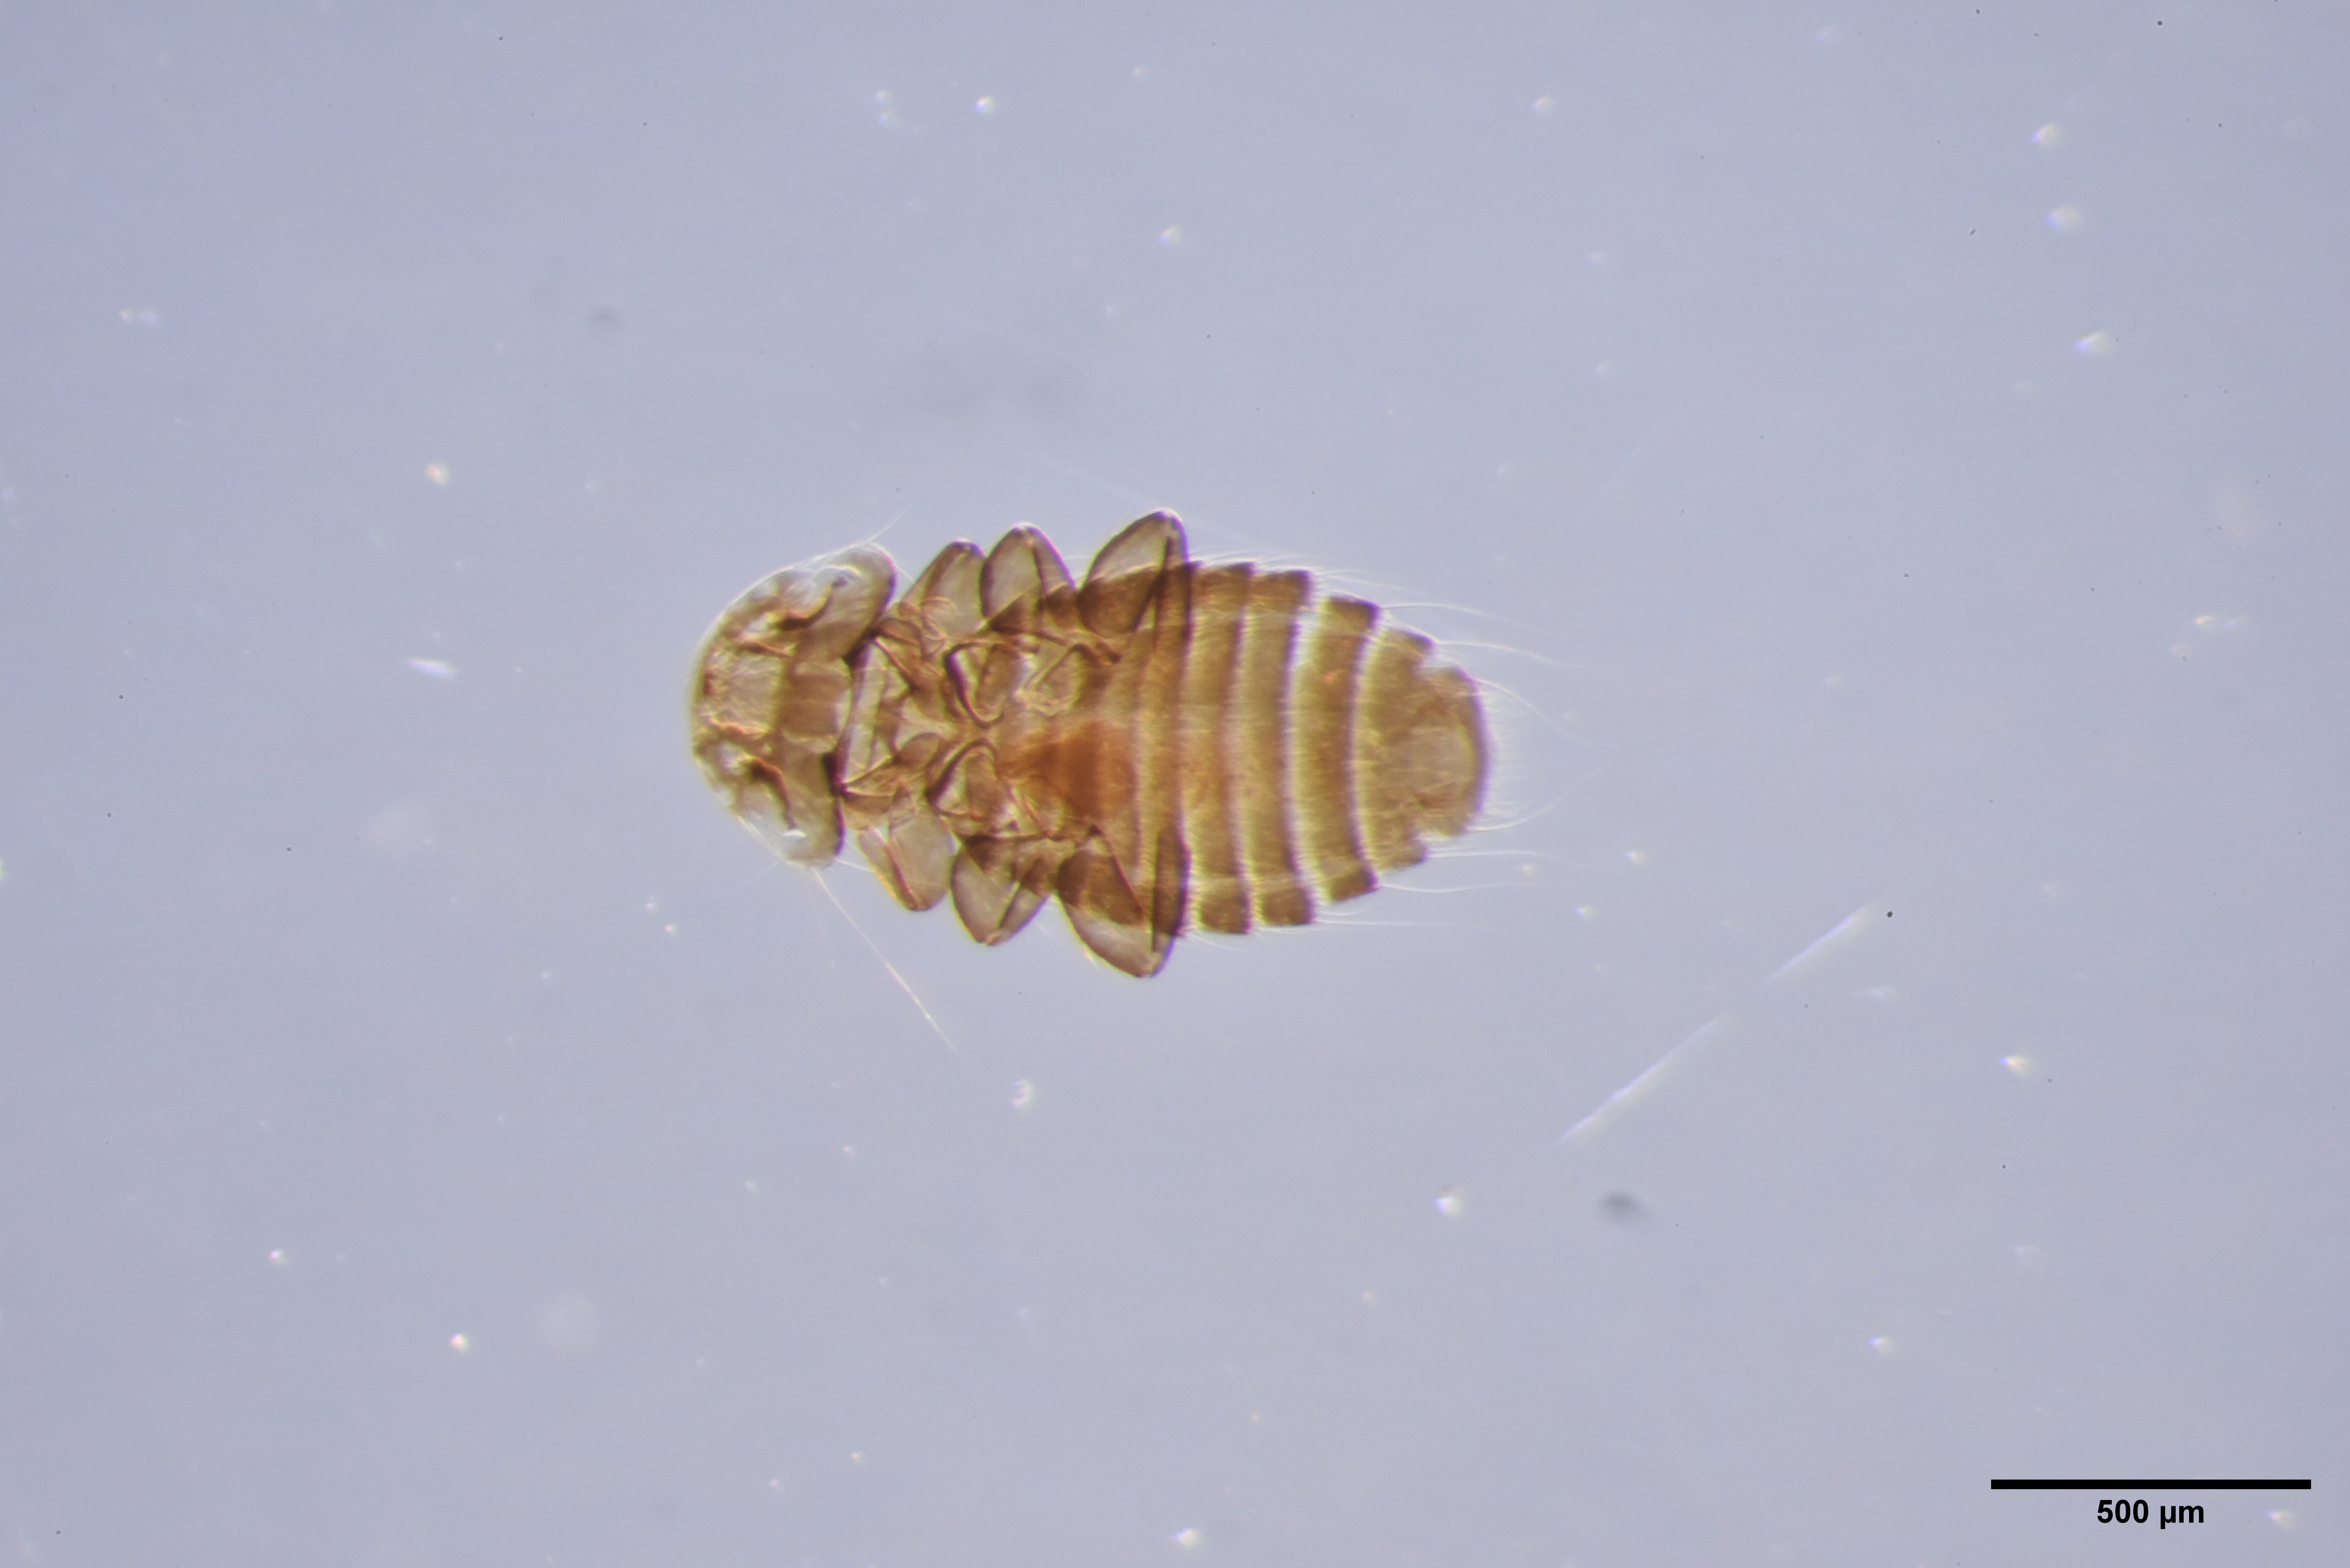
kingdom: Animalia
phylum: Arthropoda
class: Insecta
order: Psocodea
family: Menoponidae
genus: Menacanthus
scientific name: Menacanthus sinuatus
